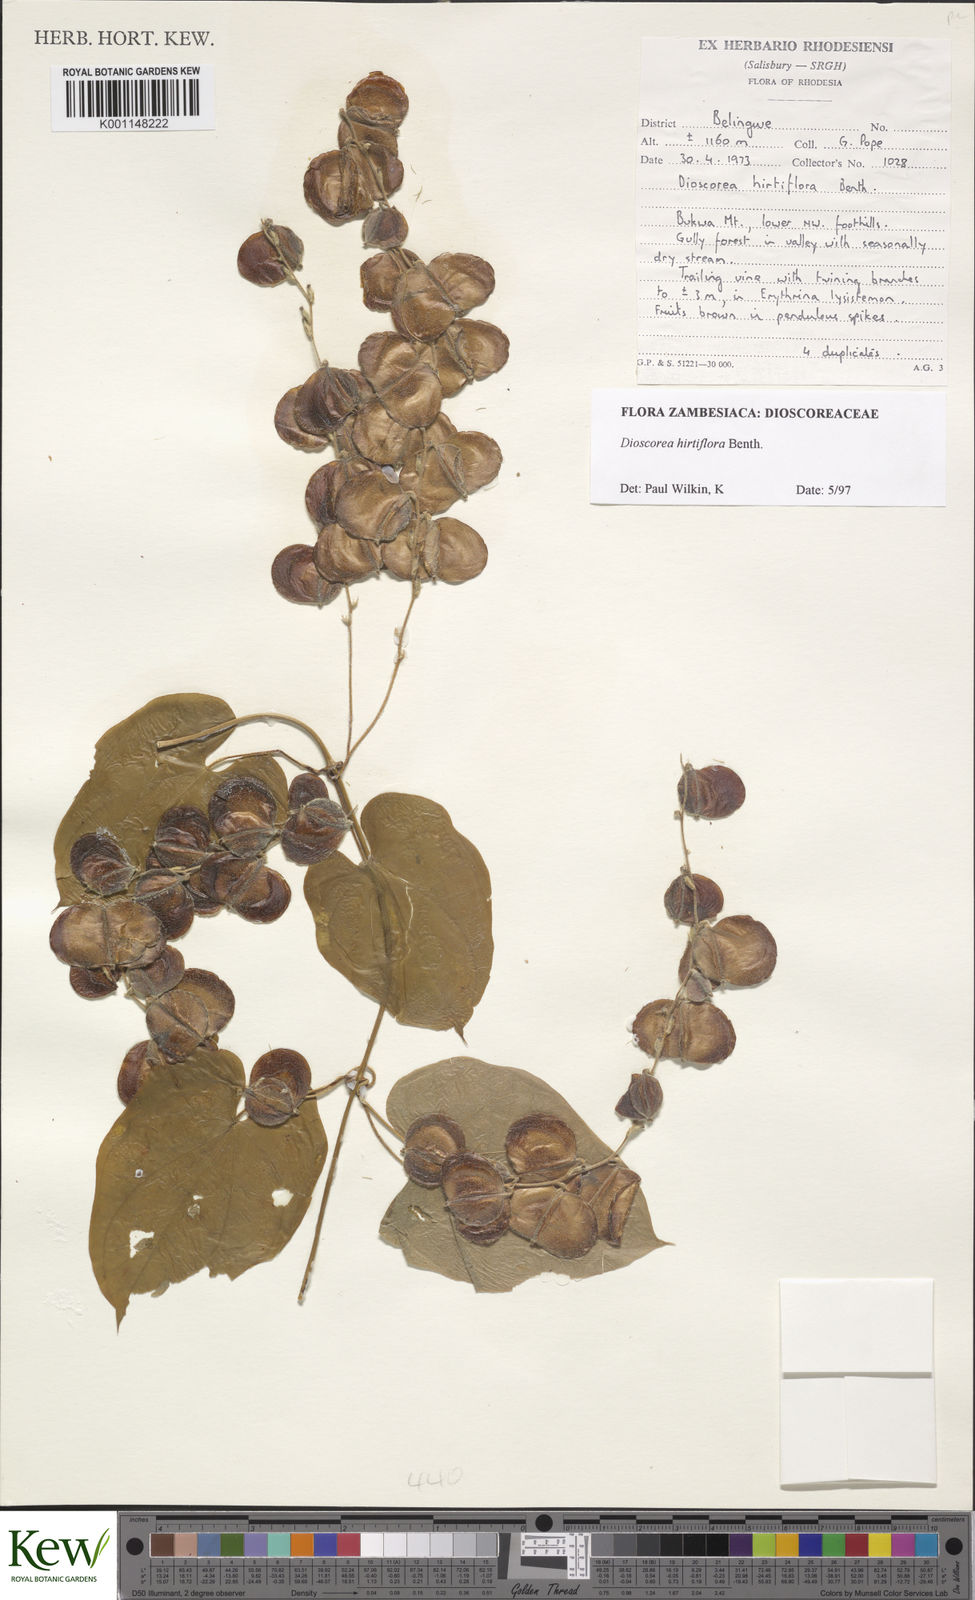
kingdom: Plantae
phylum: Tracheophyta
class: Liliopsida
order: Dioscoreales
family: Dioscoreaceae
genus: Dioscorea
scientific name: Dioscorea hirtiflora
